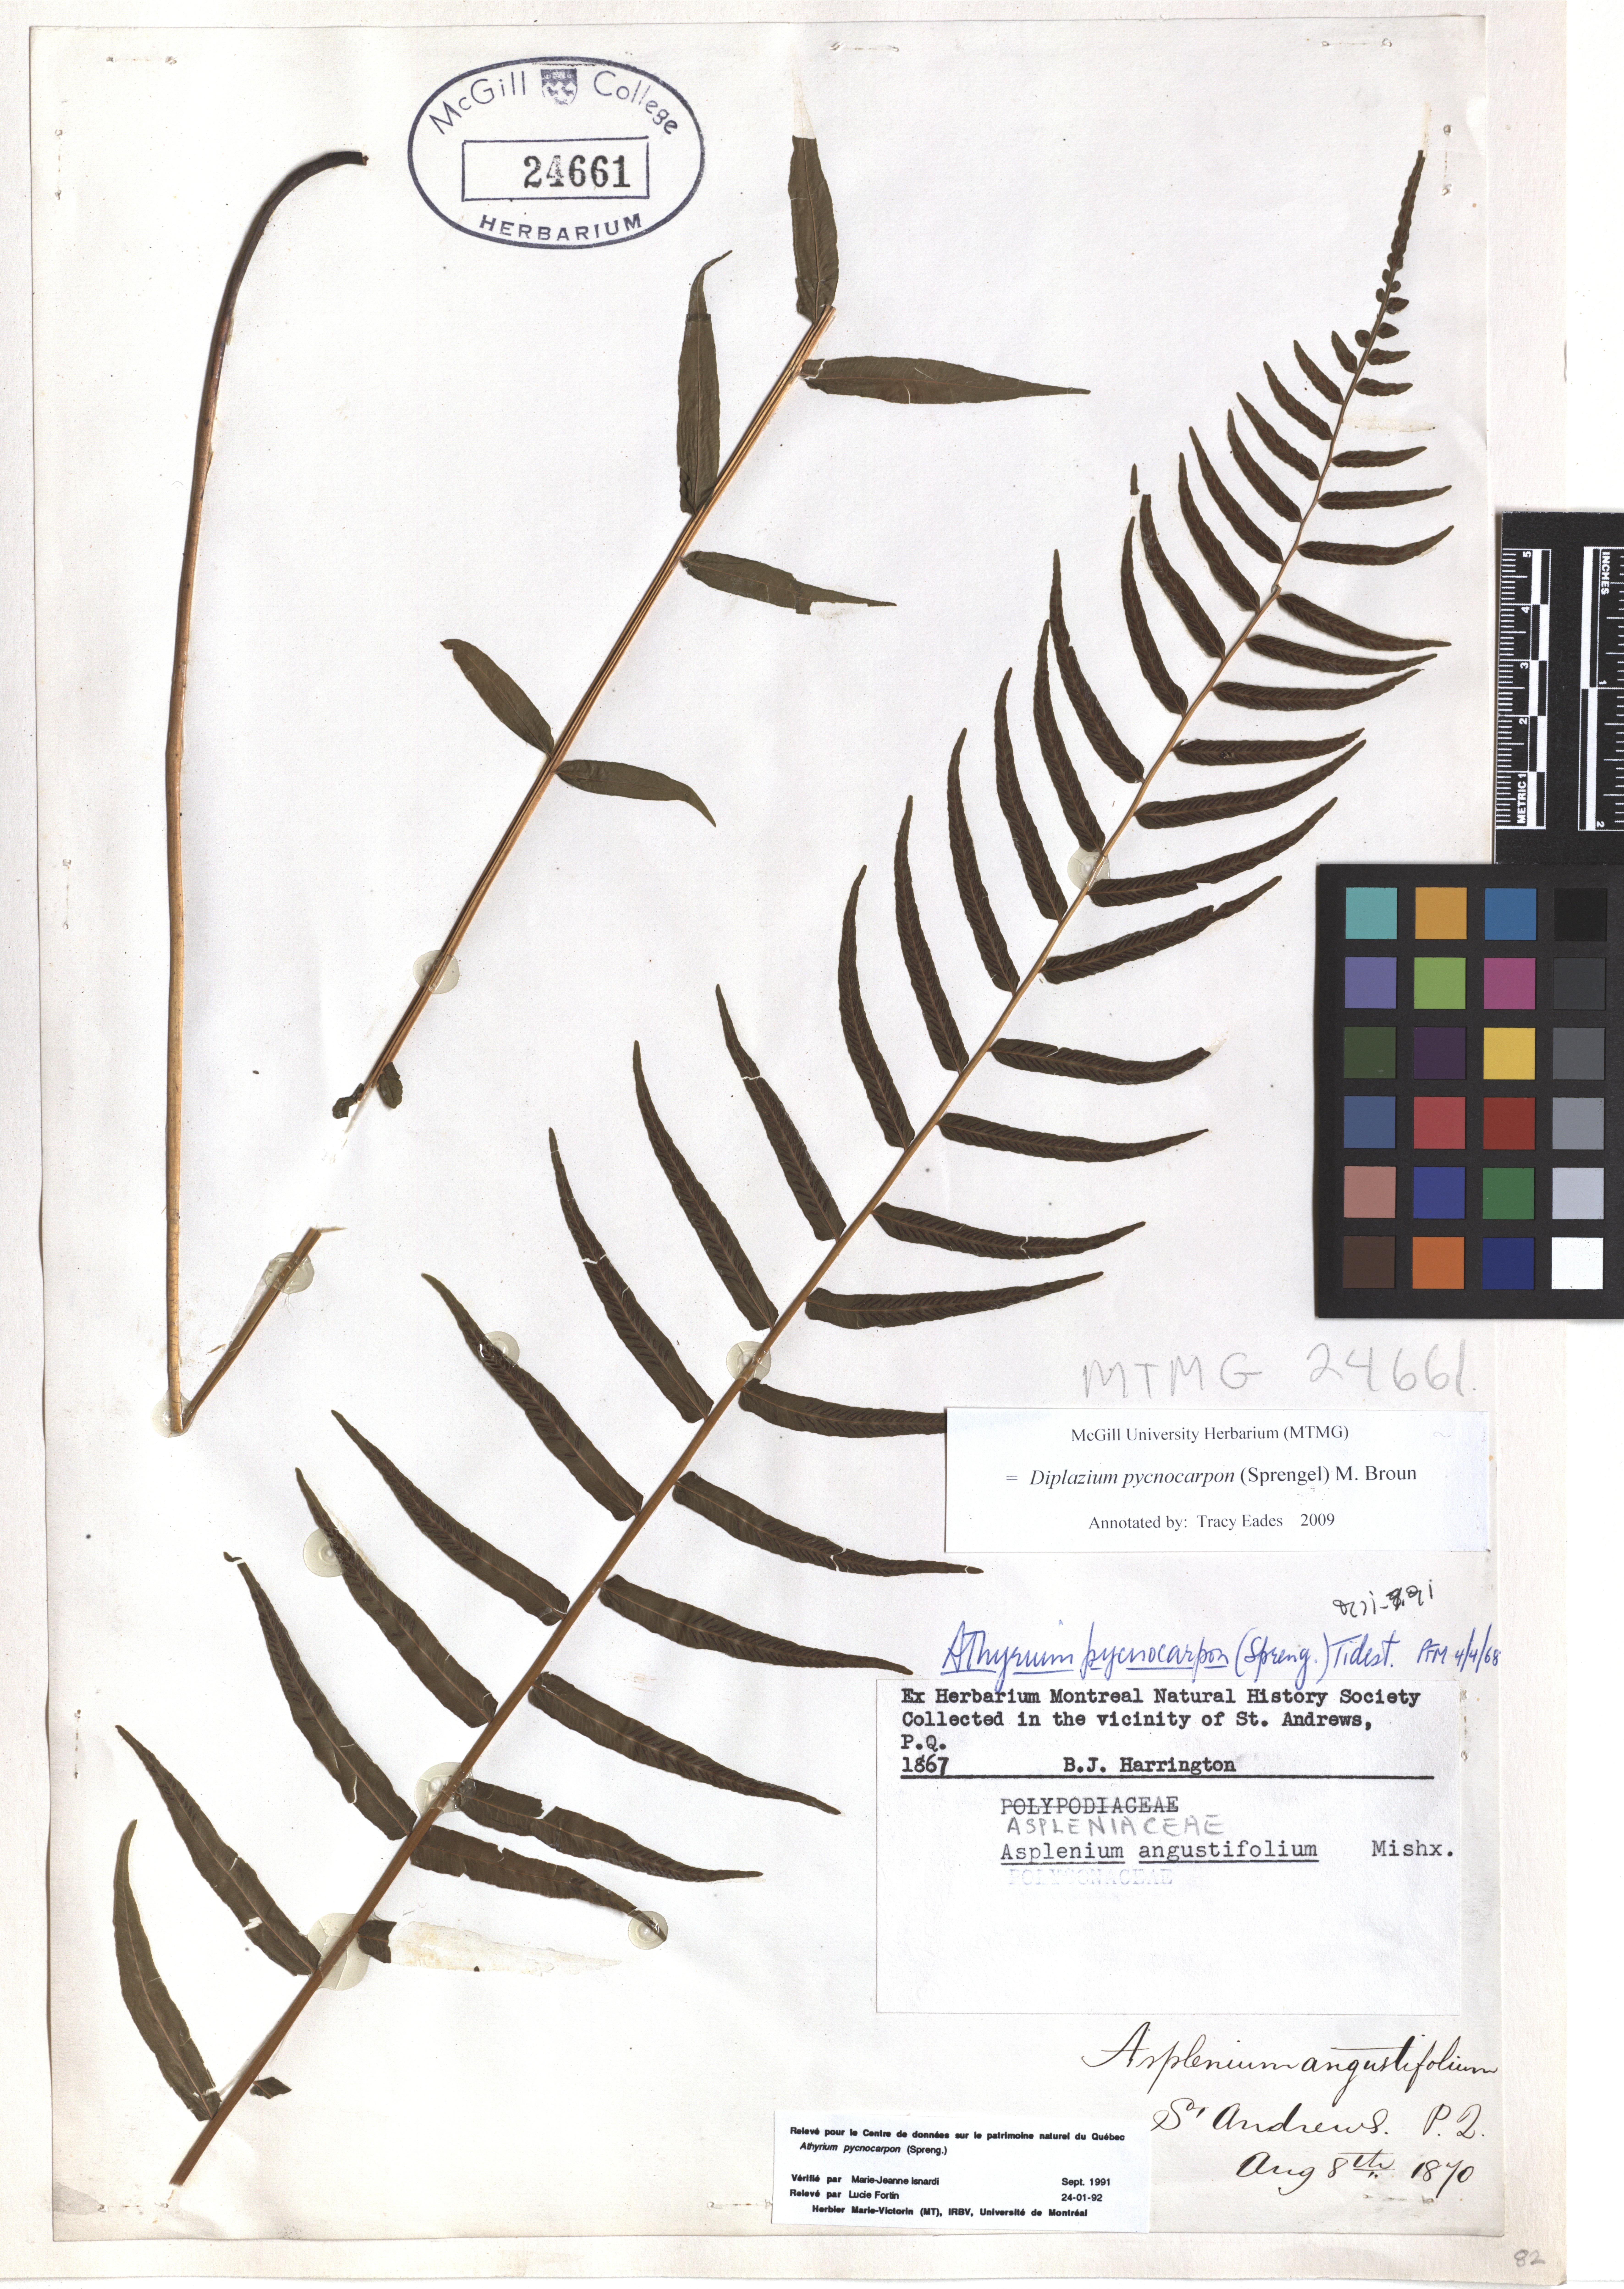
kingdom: Plantae
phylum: Tracheophyta
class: Polypodiopsida
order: Polypodiales
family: Diplaziopsidaceae
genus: Homalosorus
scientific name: Homalosorus pycnocarpos
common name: Glade fern
